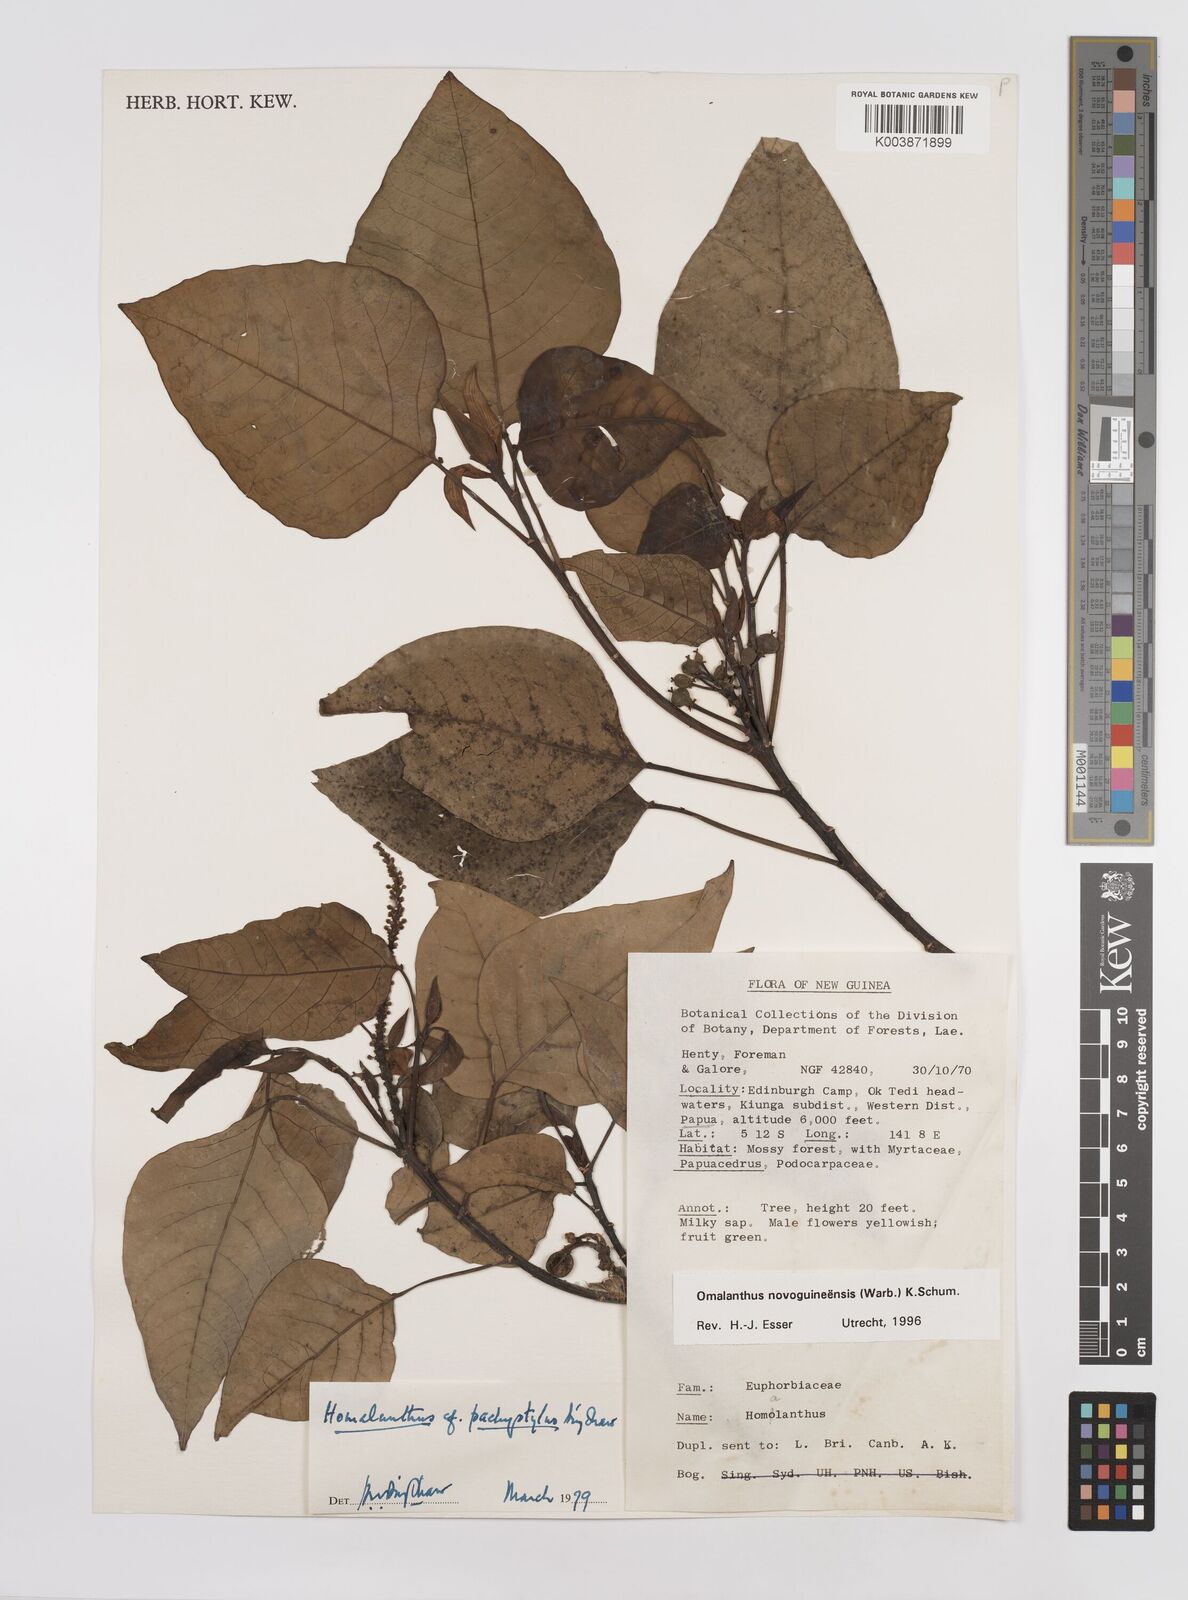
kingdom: Plantae
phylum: Tracheophyta
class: Magnoliopsida
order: Malpighiales
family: Euphorbiaceae
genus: Homalanthus
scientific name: Homalanthus novoguineensis
